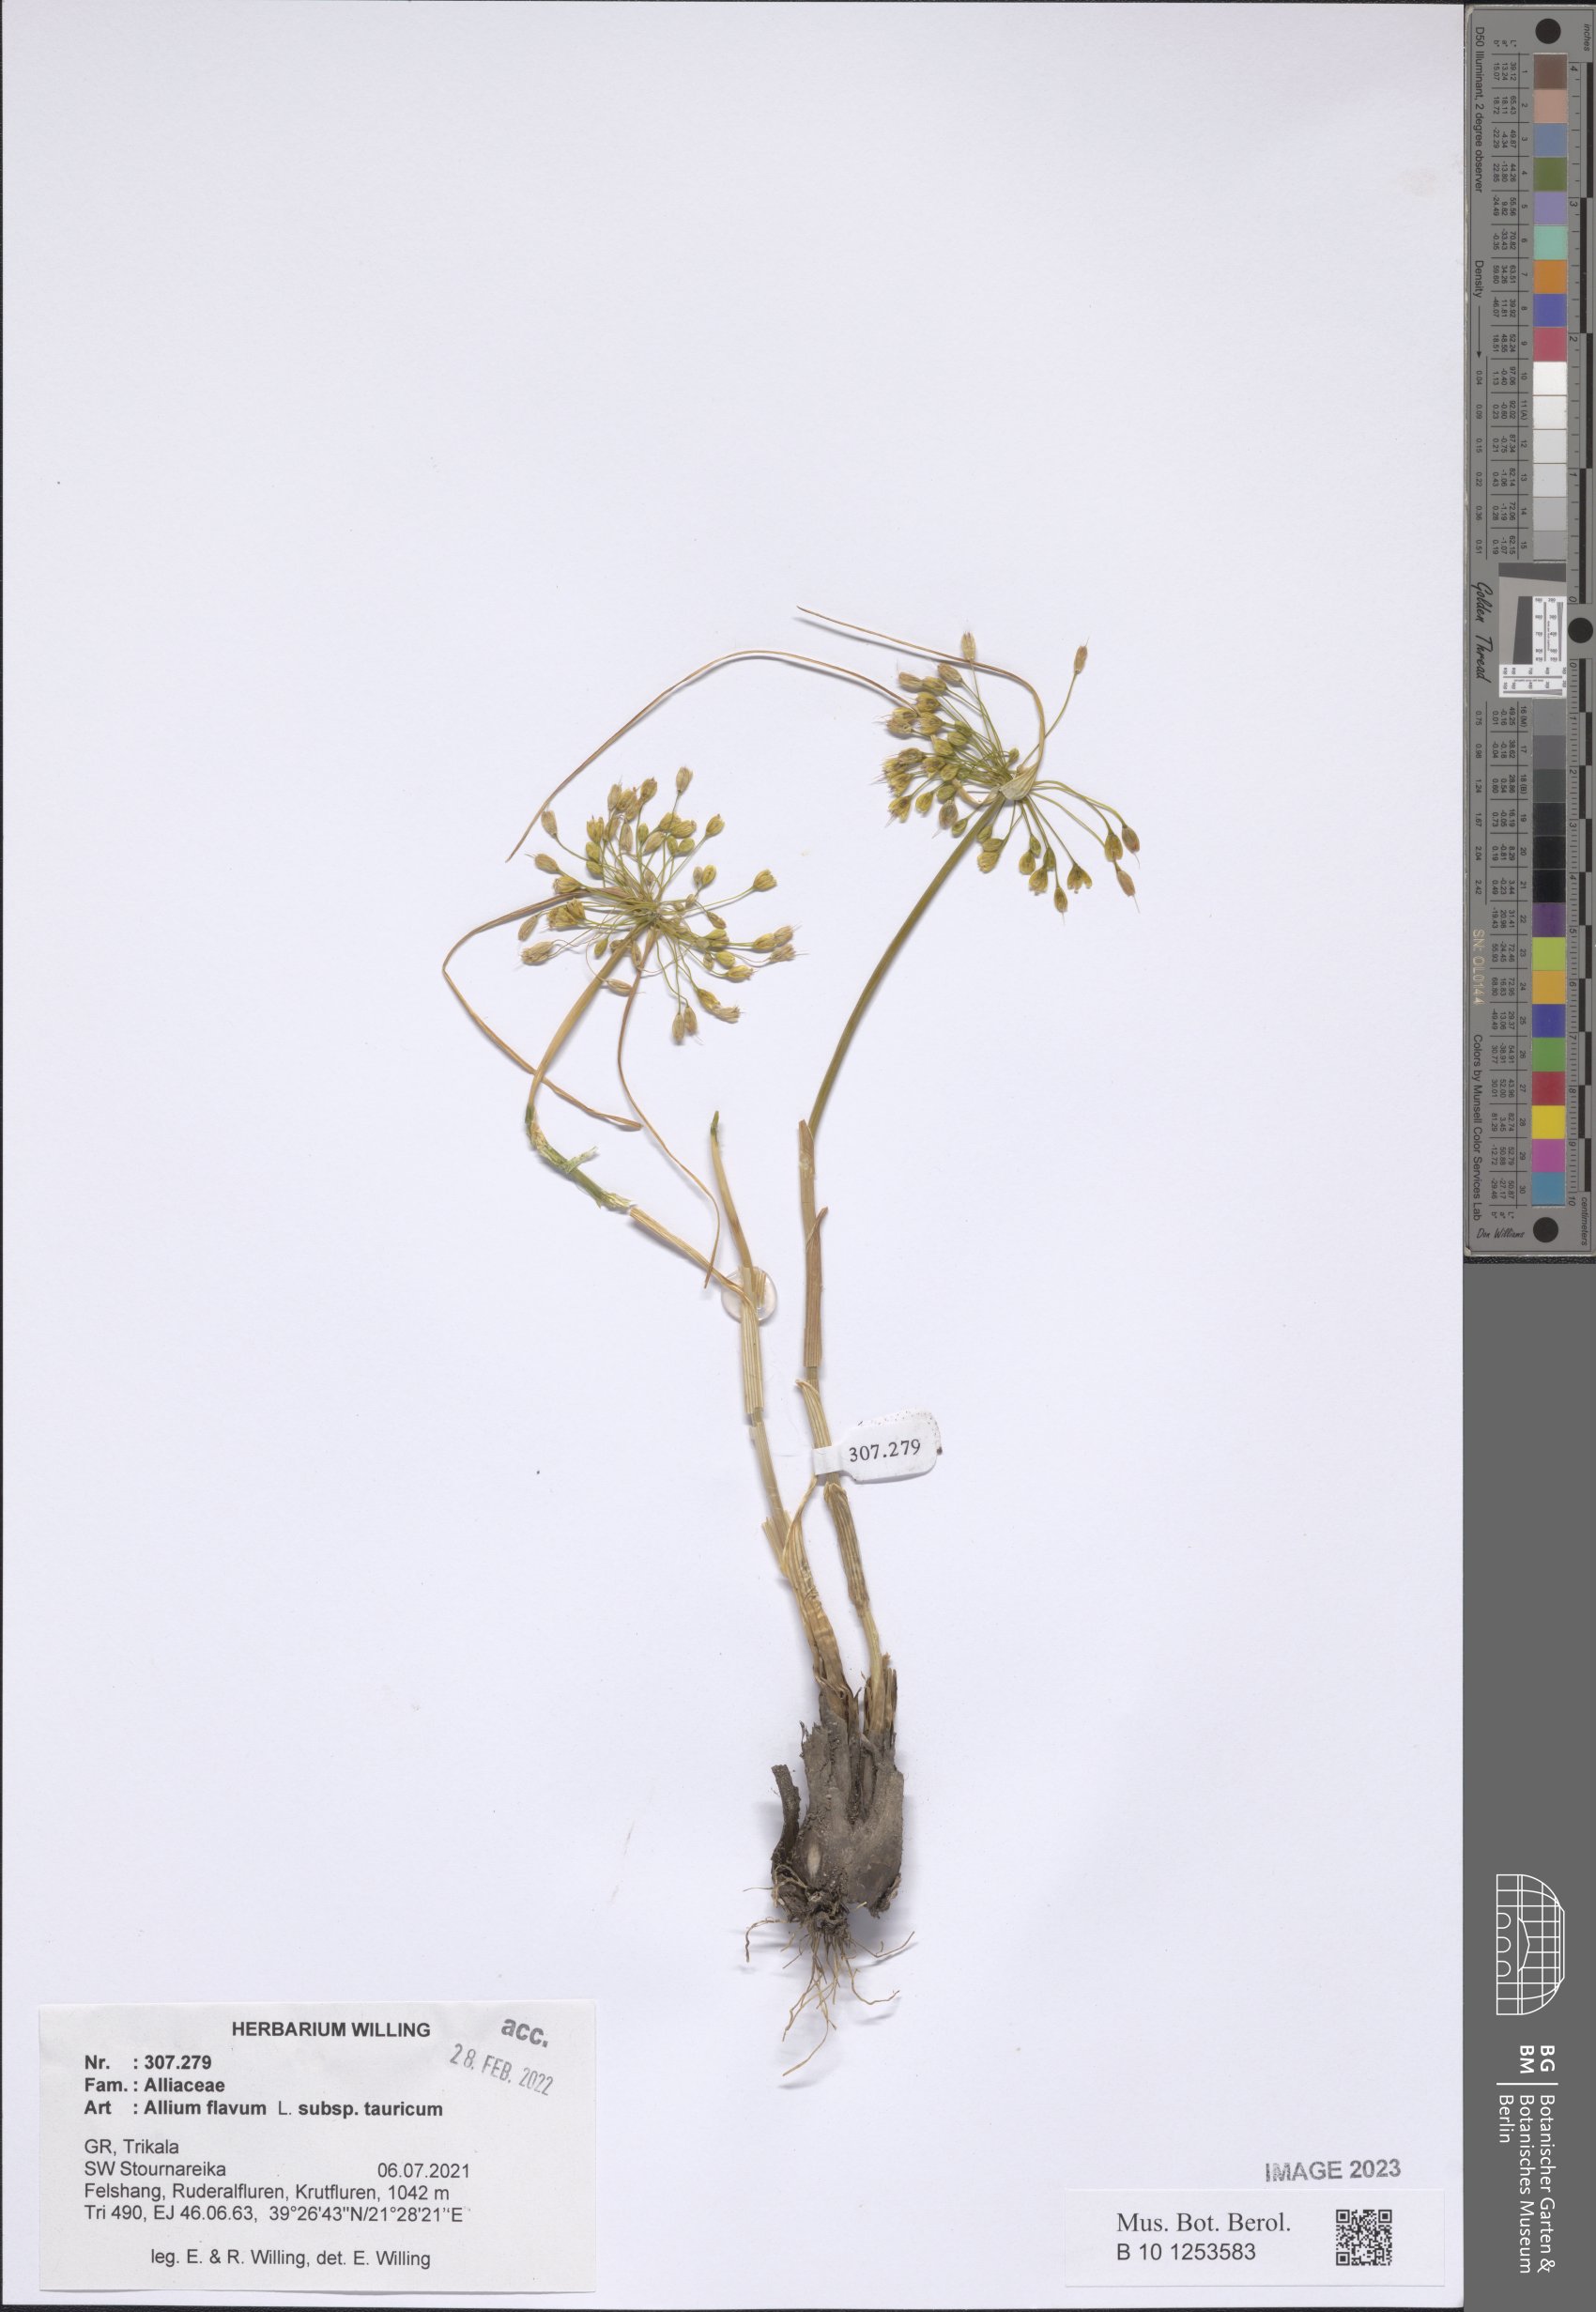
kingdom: Plantae
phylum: Tracheophyta
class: Liliopsida
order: Asparagales
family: Amaryllidaceae
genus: Allium
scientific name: Allium flavum
